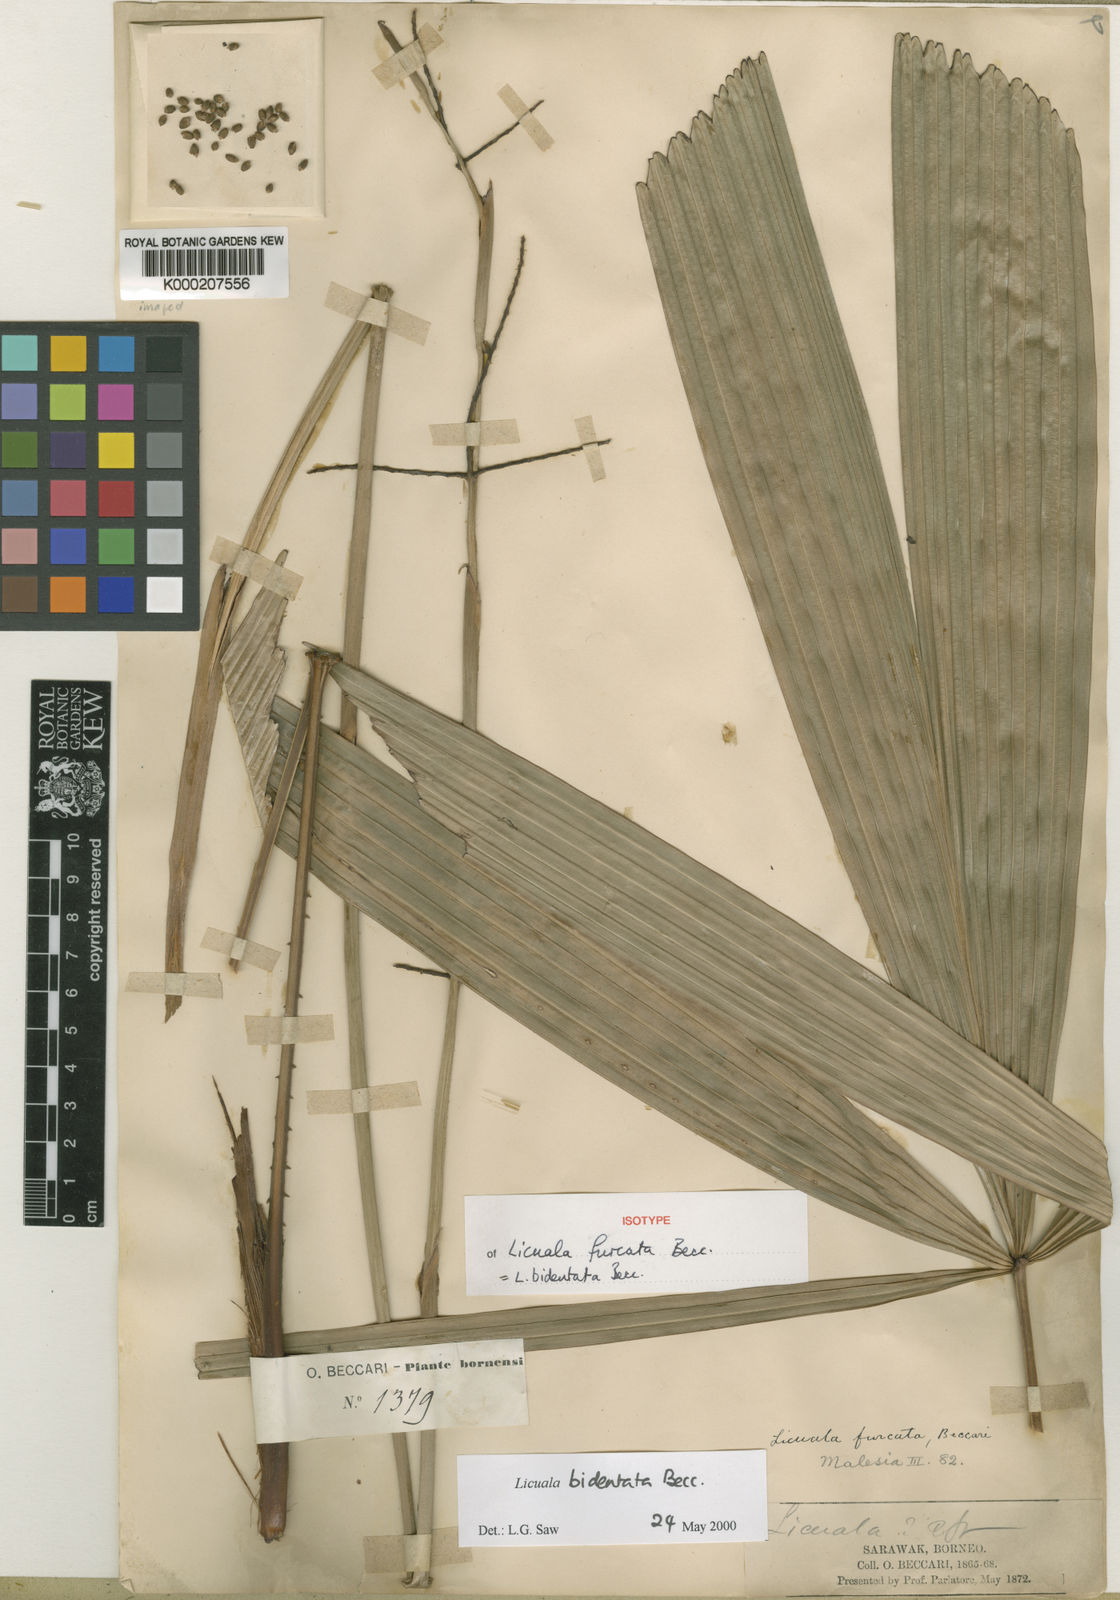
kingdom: Plantae
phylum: Tracheophyta
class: Liliopsida
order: Arecales
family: Arecaceae
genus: Licuala
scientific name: Licuala bidentata
